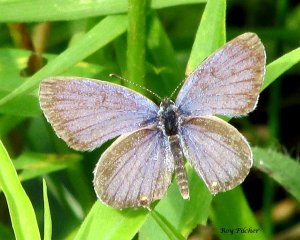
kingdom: Animalia
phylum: Arthropoda
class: Insecta
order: Lepidoptera
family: Lycaenidae
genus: Elkalyce
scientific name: Elkalyce comyntas
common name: Eastern Tailed-Blue
